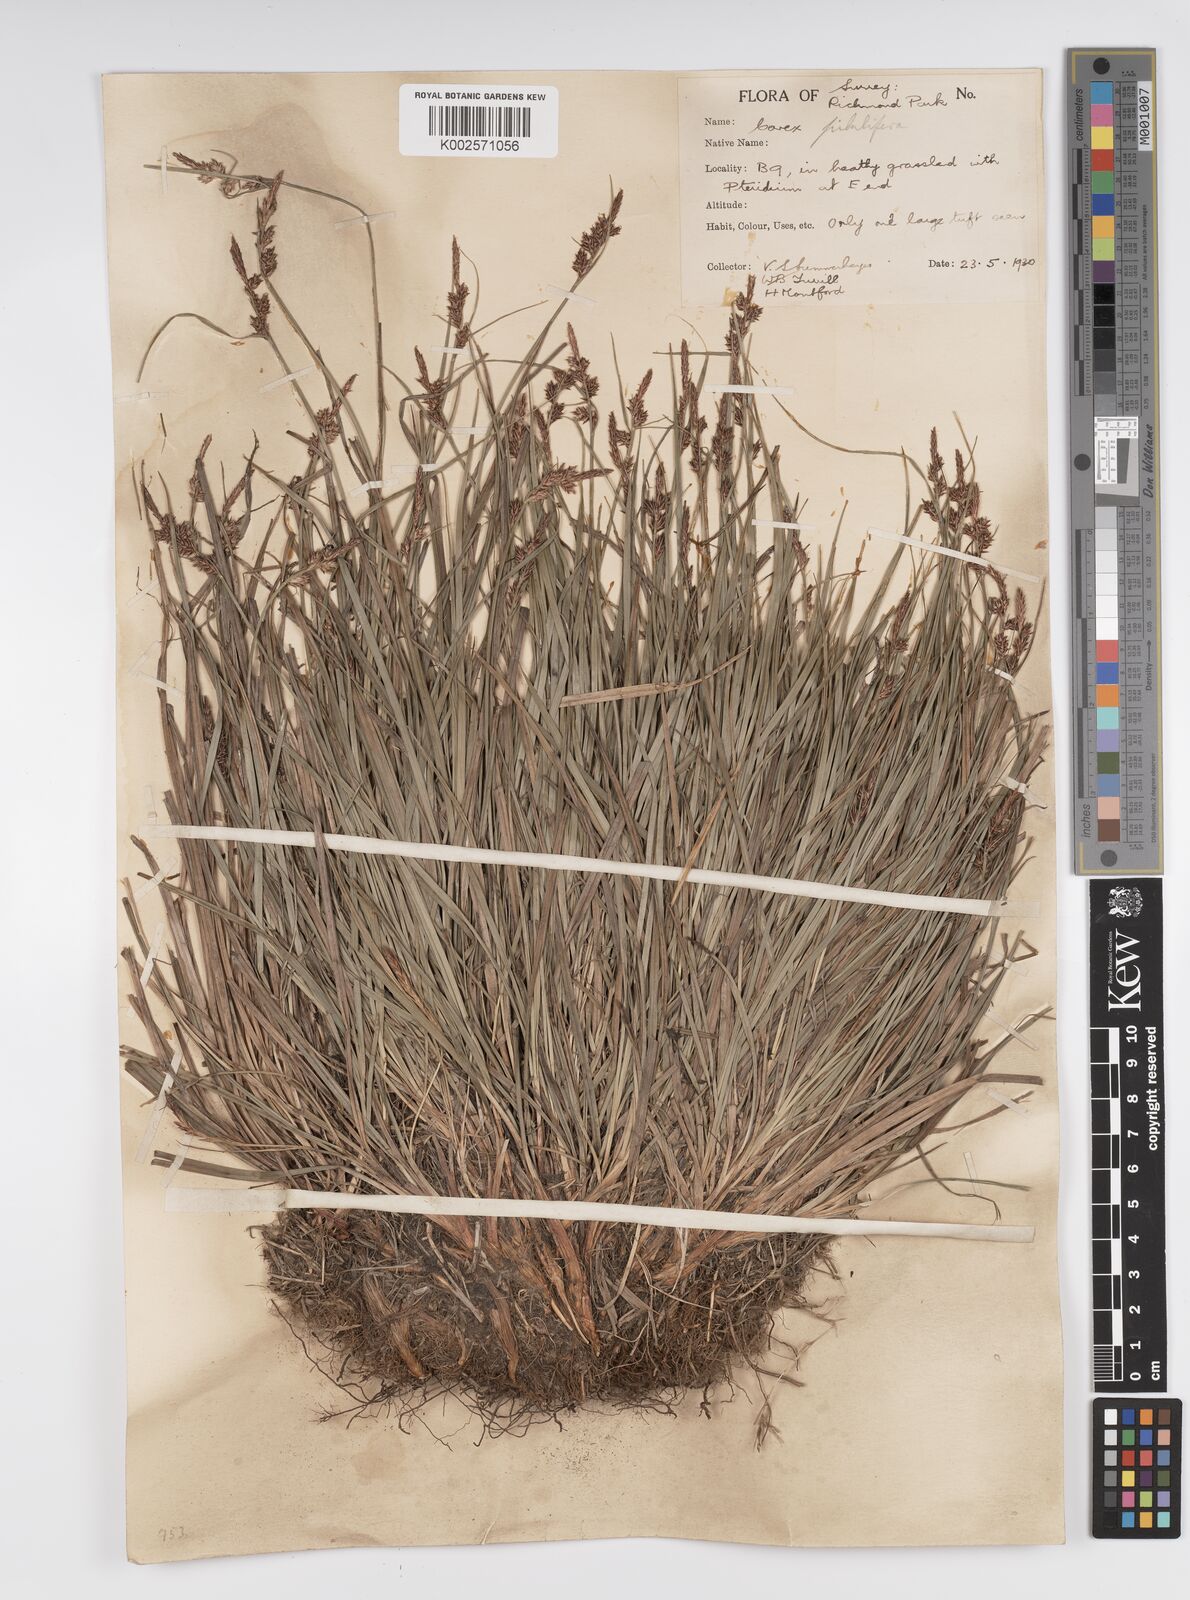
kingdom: Plantae
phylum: Tracheophyta
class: Liliopsida
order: Poales
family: Cyperaceae
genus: Carex
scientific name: Carex pilulifera
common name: Pill sedge
